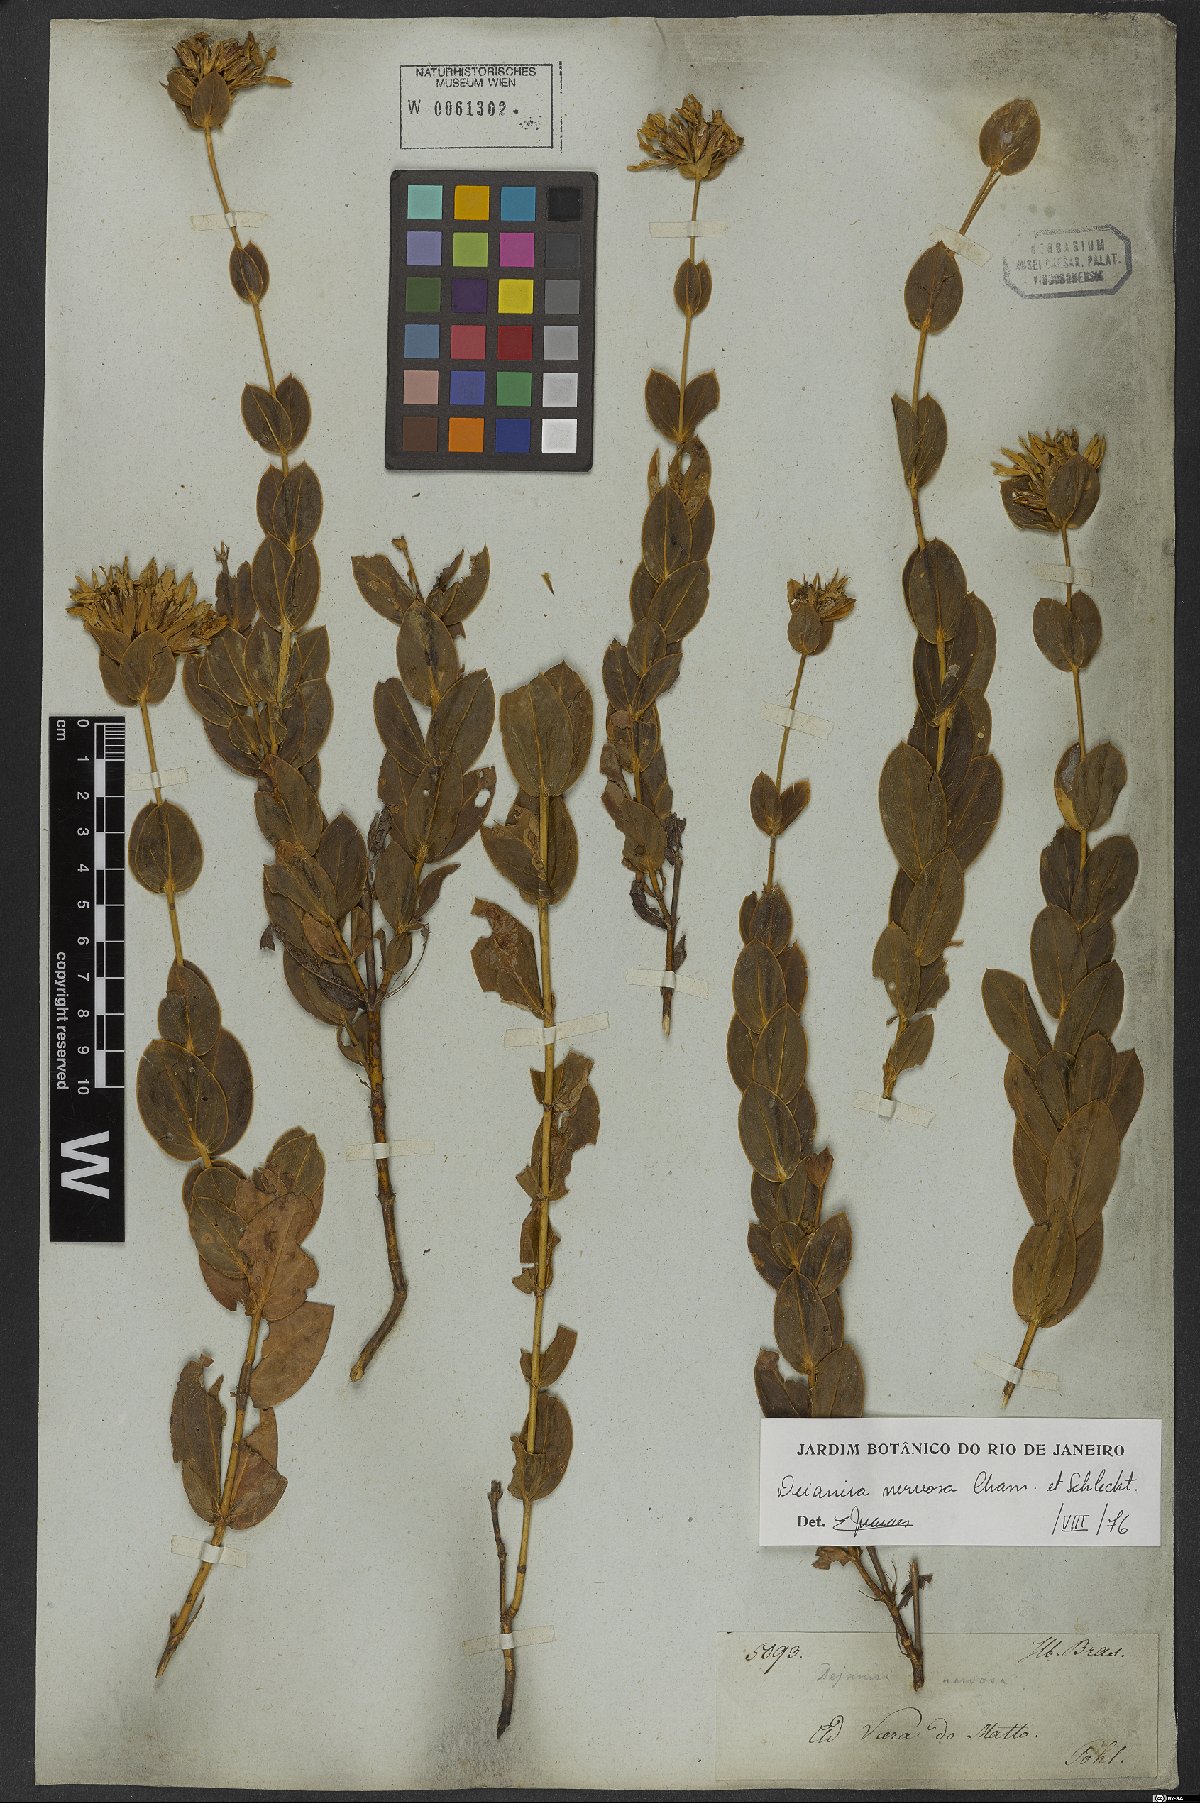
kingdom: Plantae
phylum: Tracheophyta
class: Magnoliopsida
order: Gentianales
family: Gentianaceae
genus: Deianira
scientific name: Deianira nervosa
